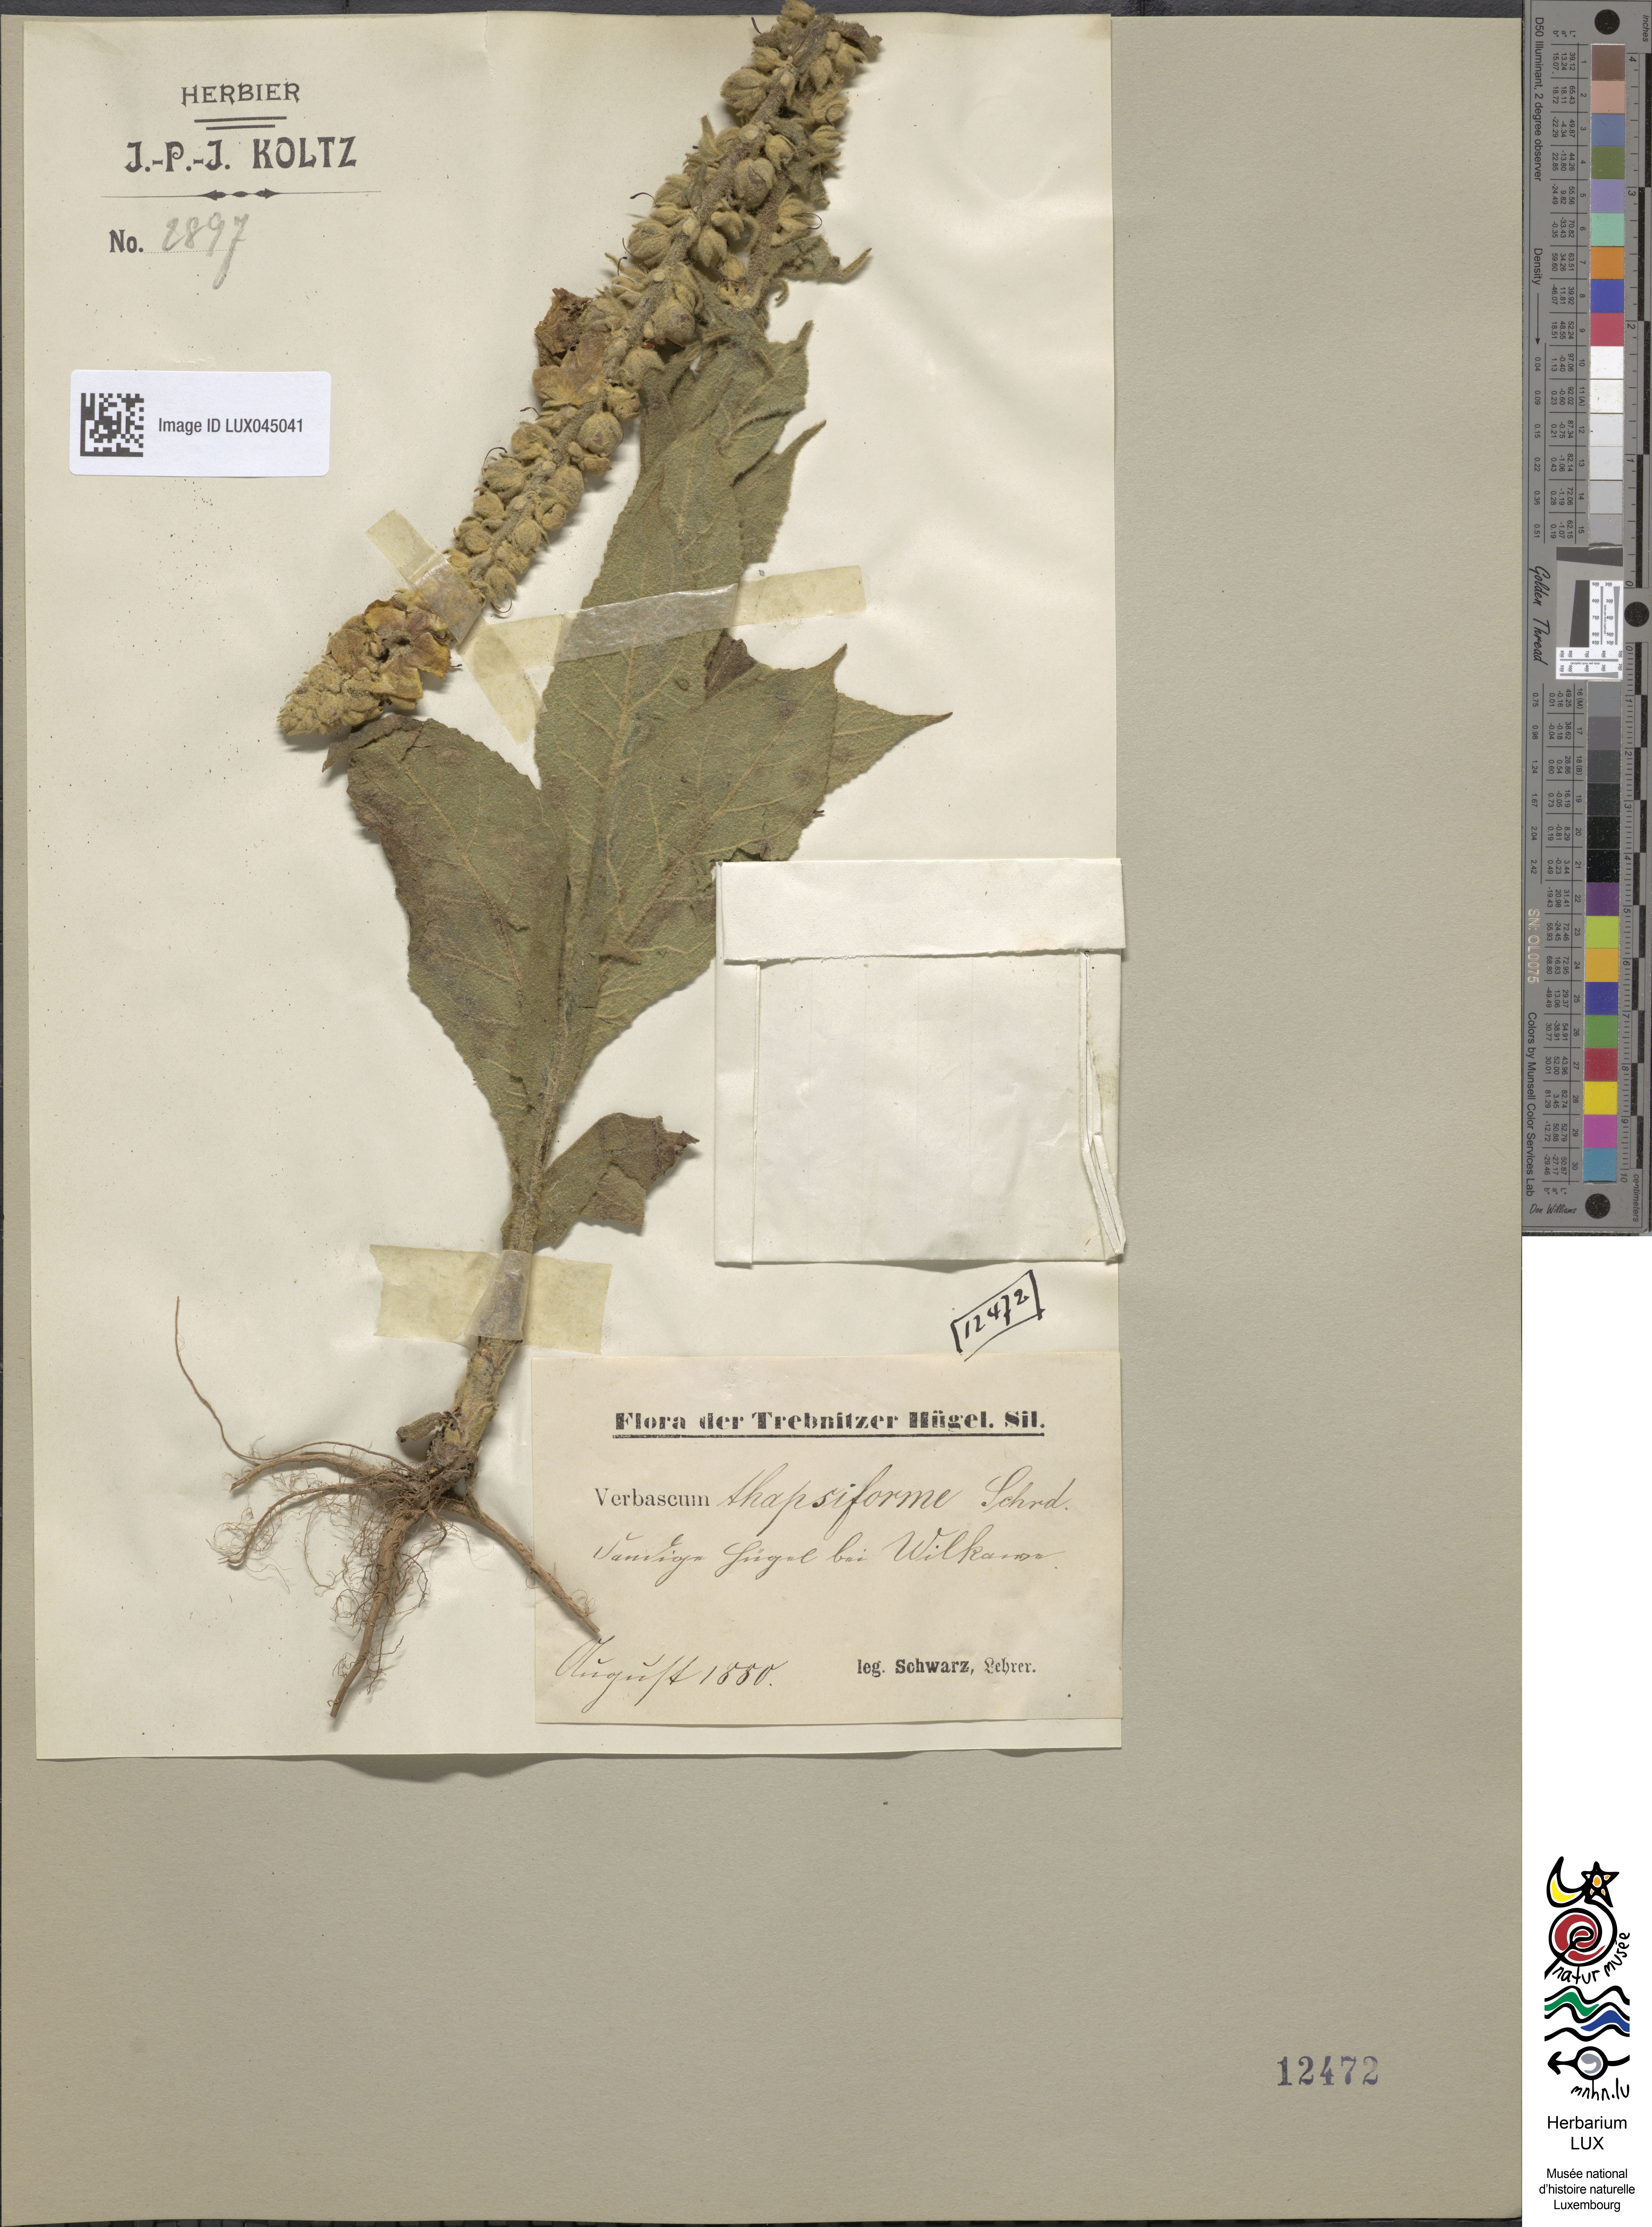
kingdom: Plantae
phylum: Tracheophyta
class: Magnoliopsida
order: Lamiales
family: Scrophulariaceae
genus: Verbascum
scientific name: Verbascum densiflorum
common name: Dense-flowered mullein
